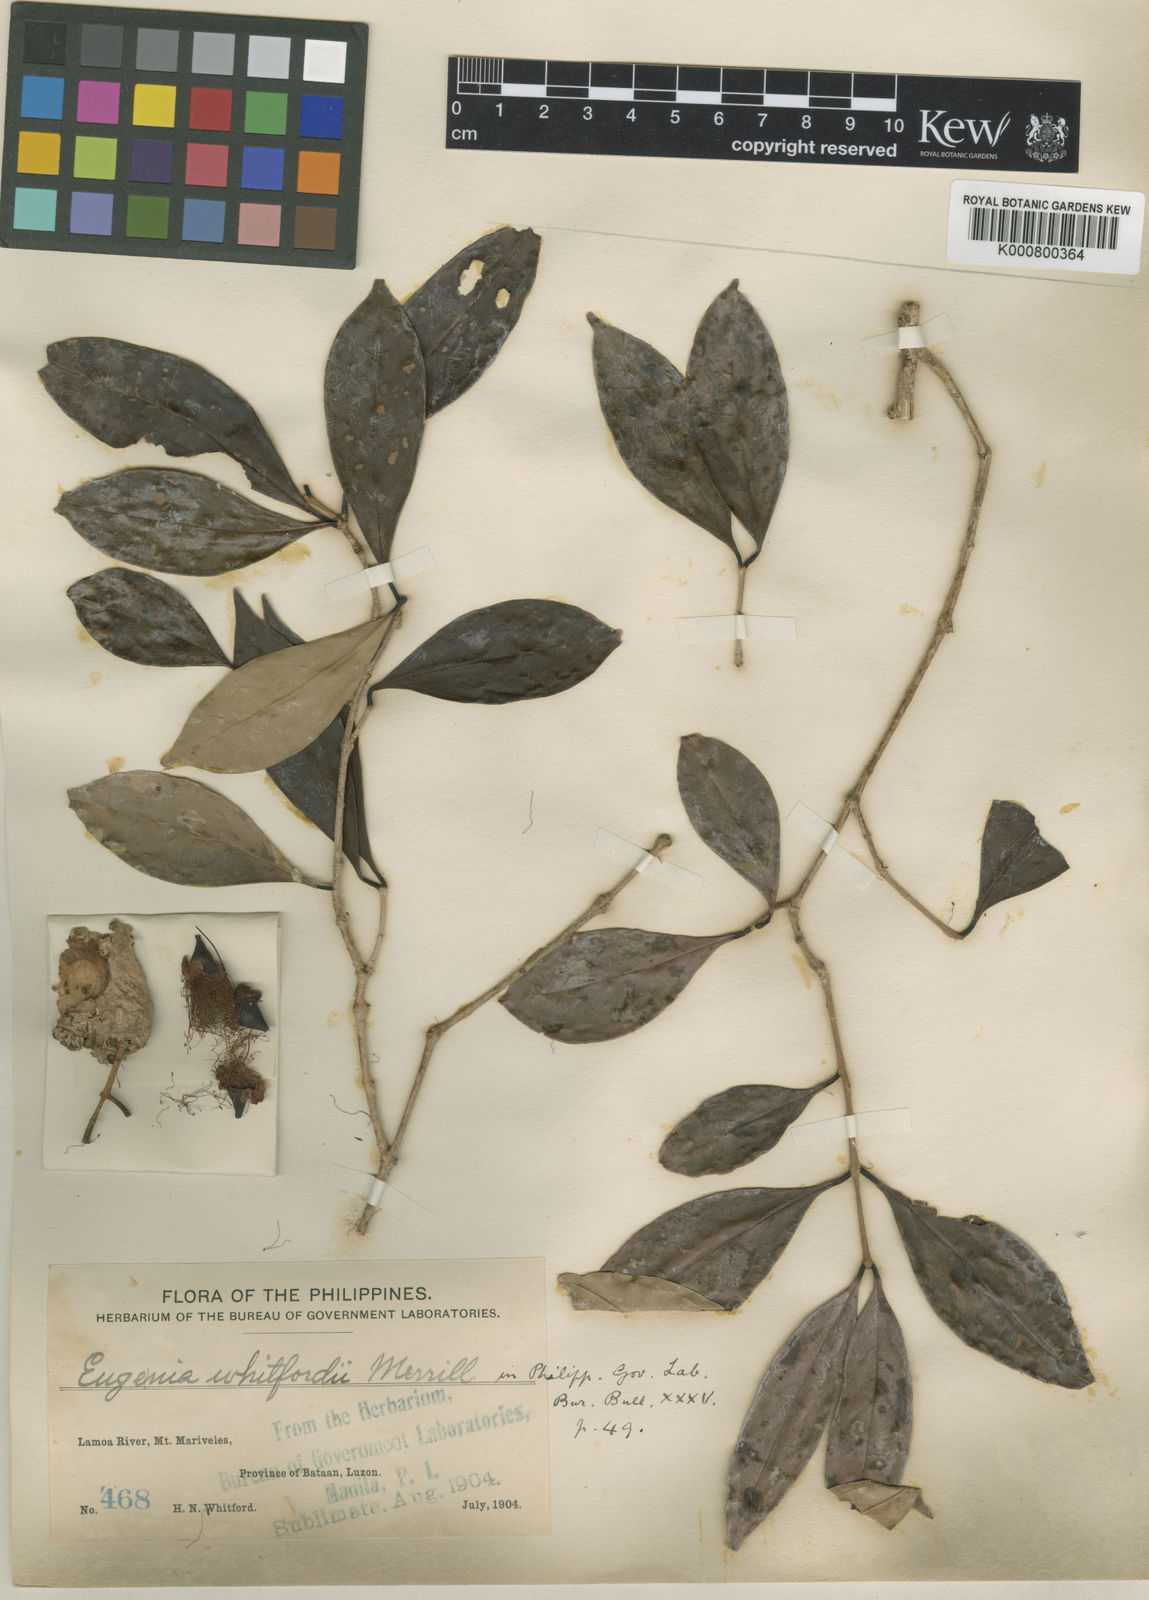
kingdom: Plantae
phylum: Tracheophyta
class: Magnoliopsida
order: Myrtales
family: Myrtaceae
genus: Syzygium
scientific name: Syzygium whitfordii
